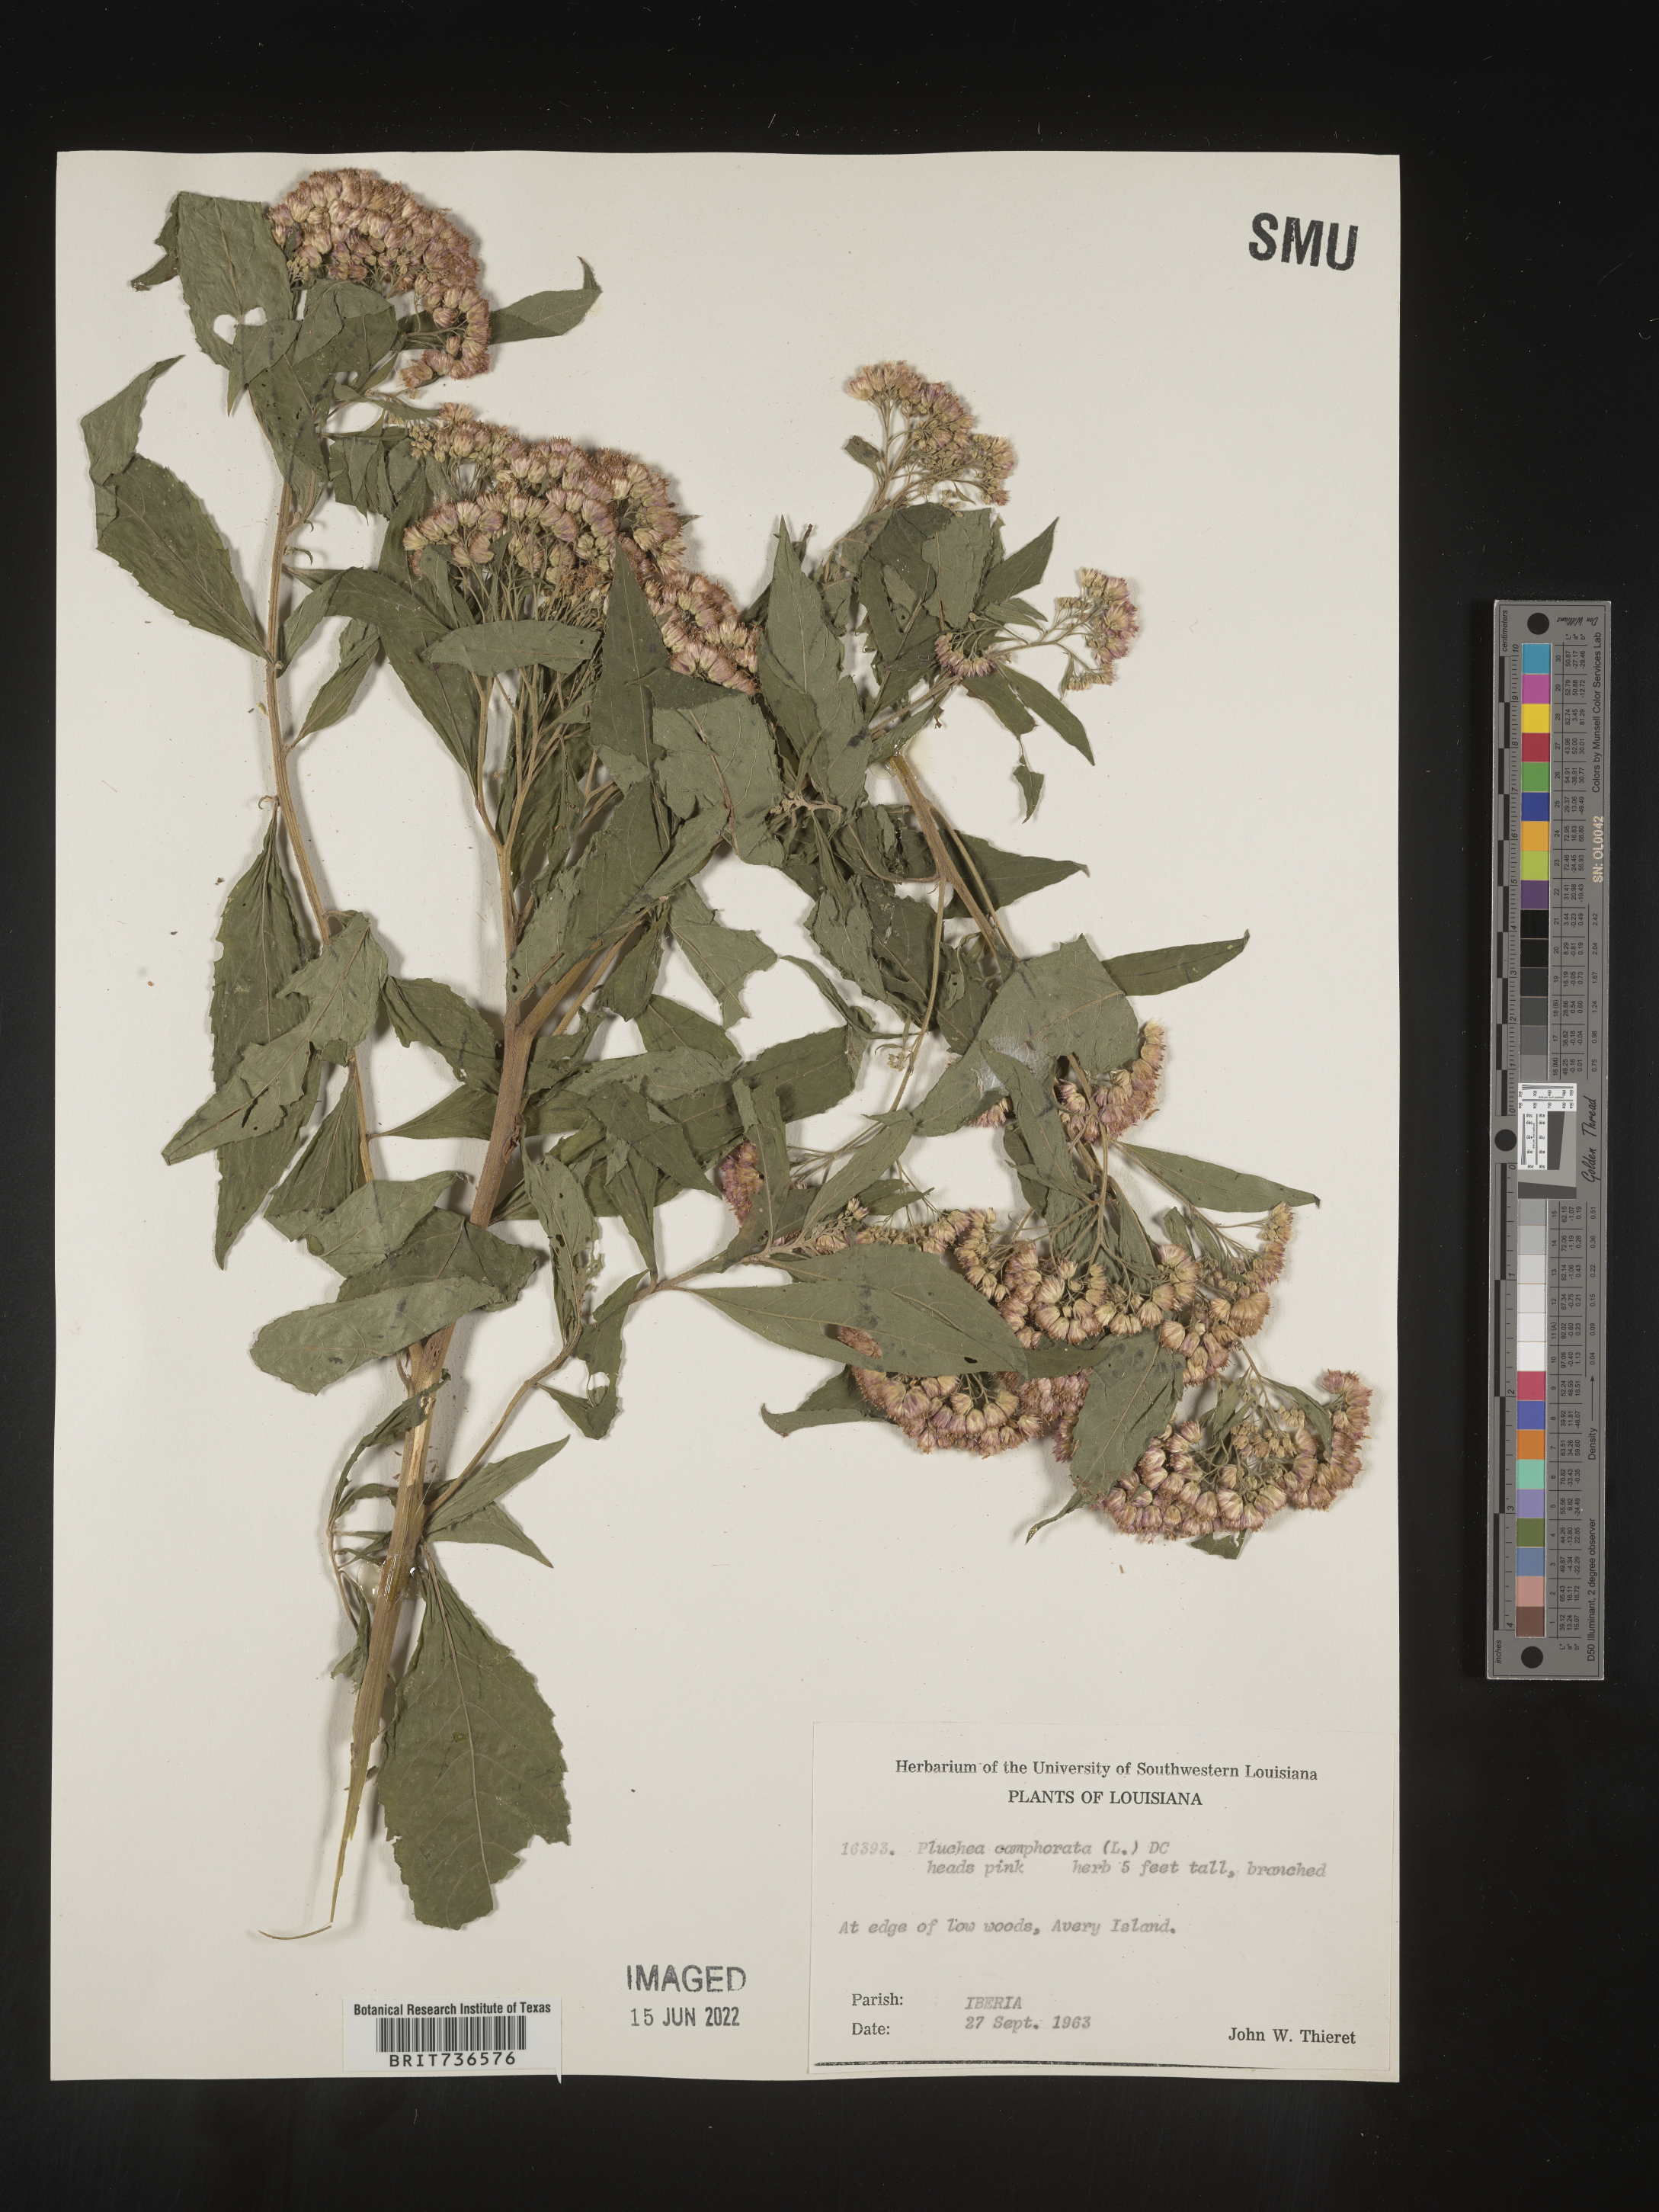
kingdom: Plantae
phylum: Tracheophyta
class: Magnoliopsida
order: Asterales
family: Asteraceae
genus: Pluchea
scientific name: Pluchea camphorata
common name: Camphor pluchea
